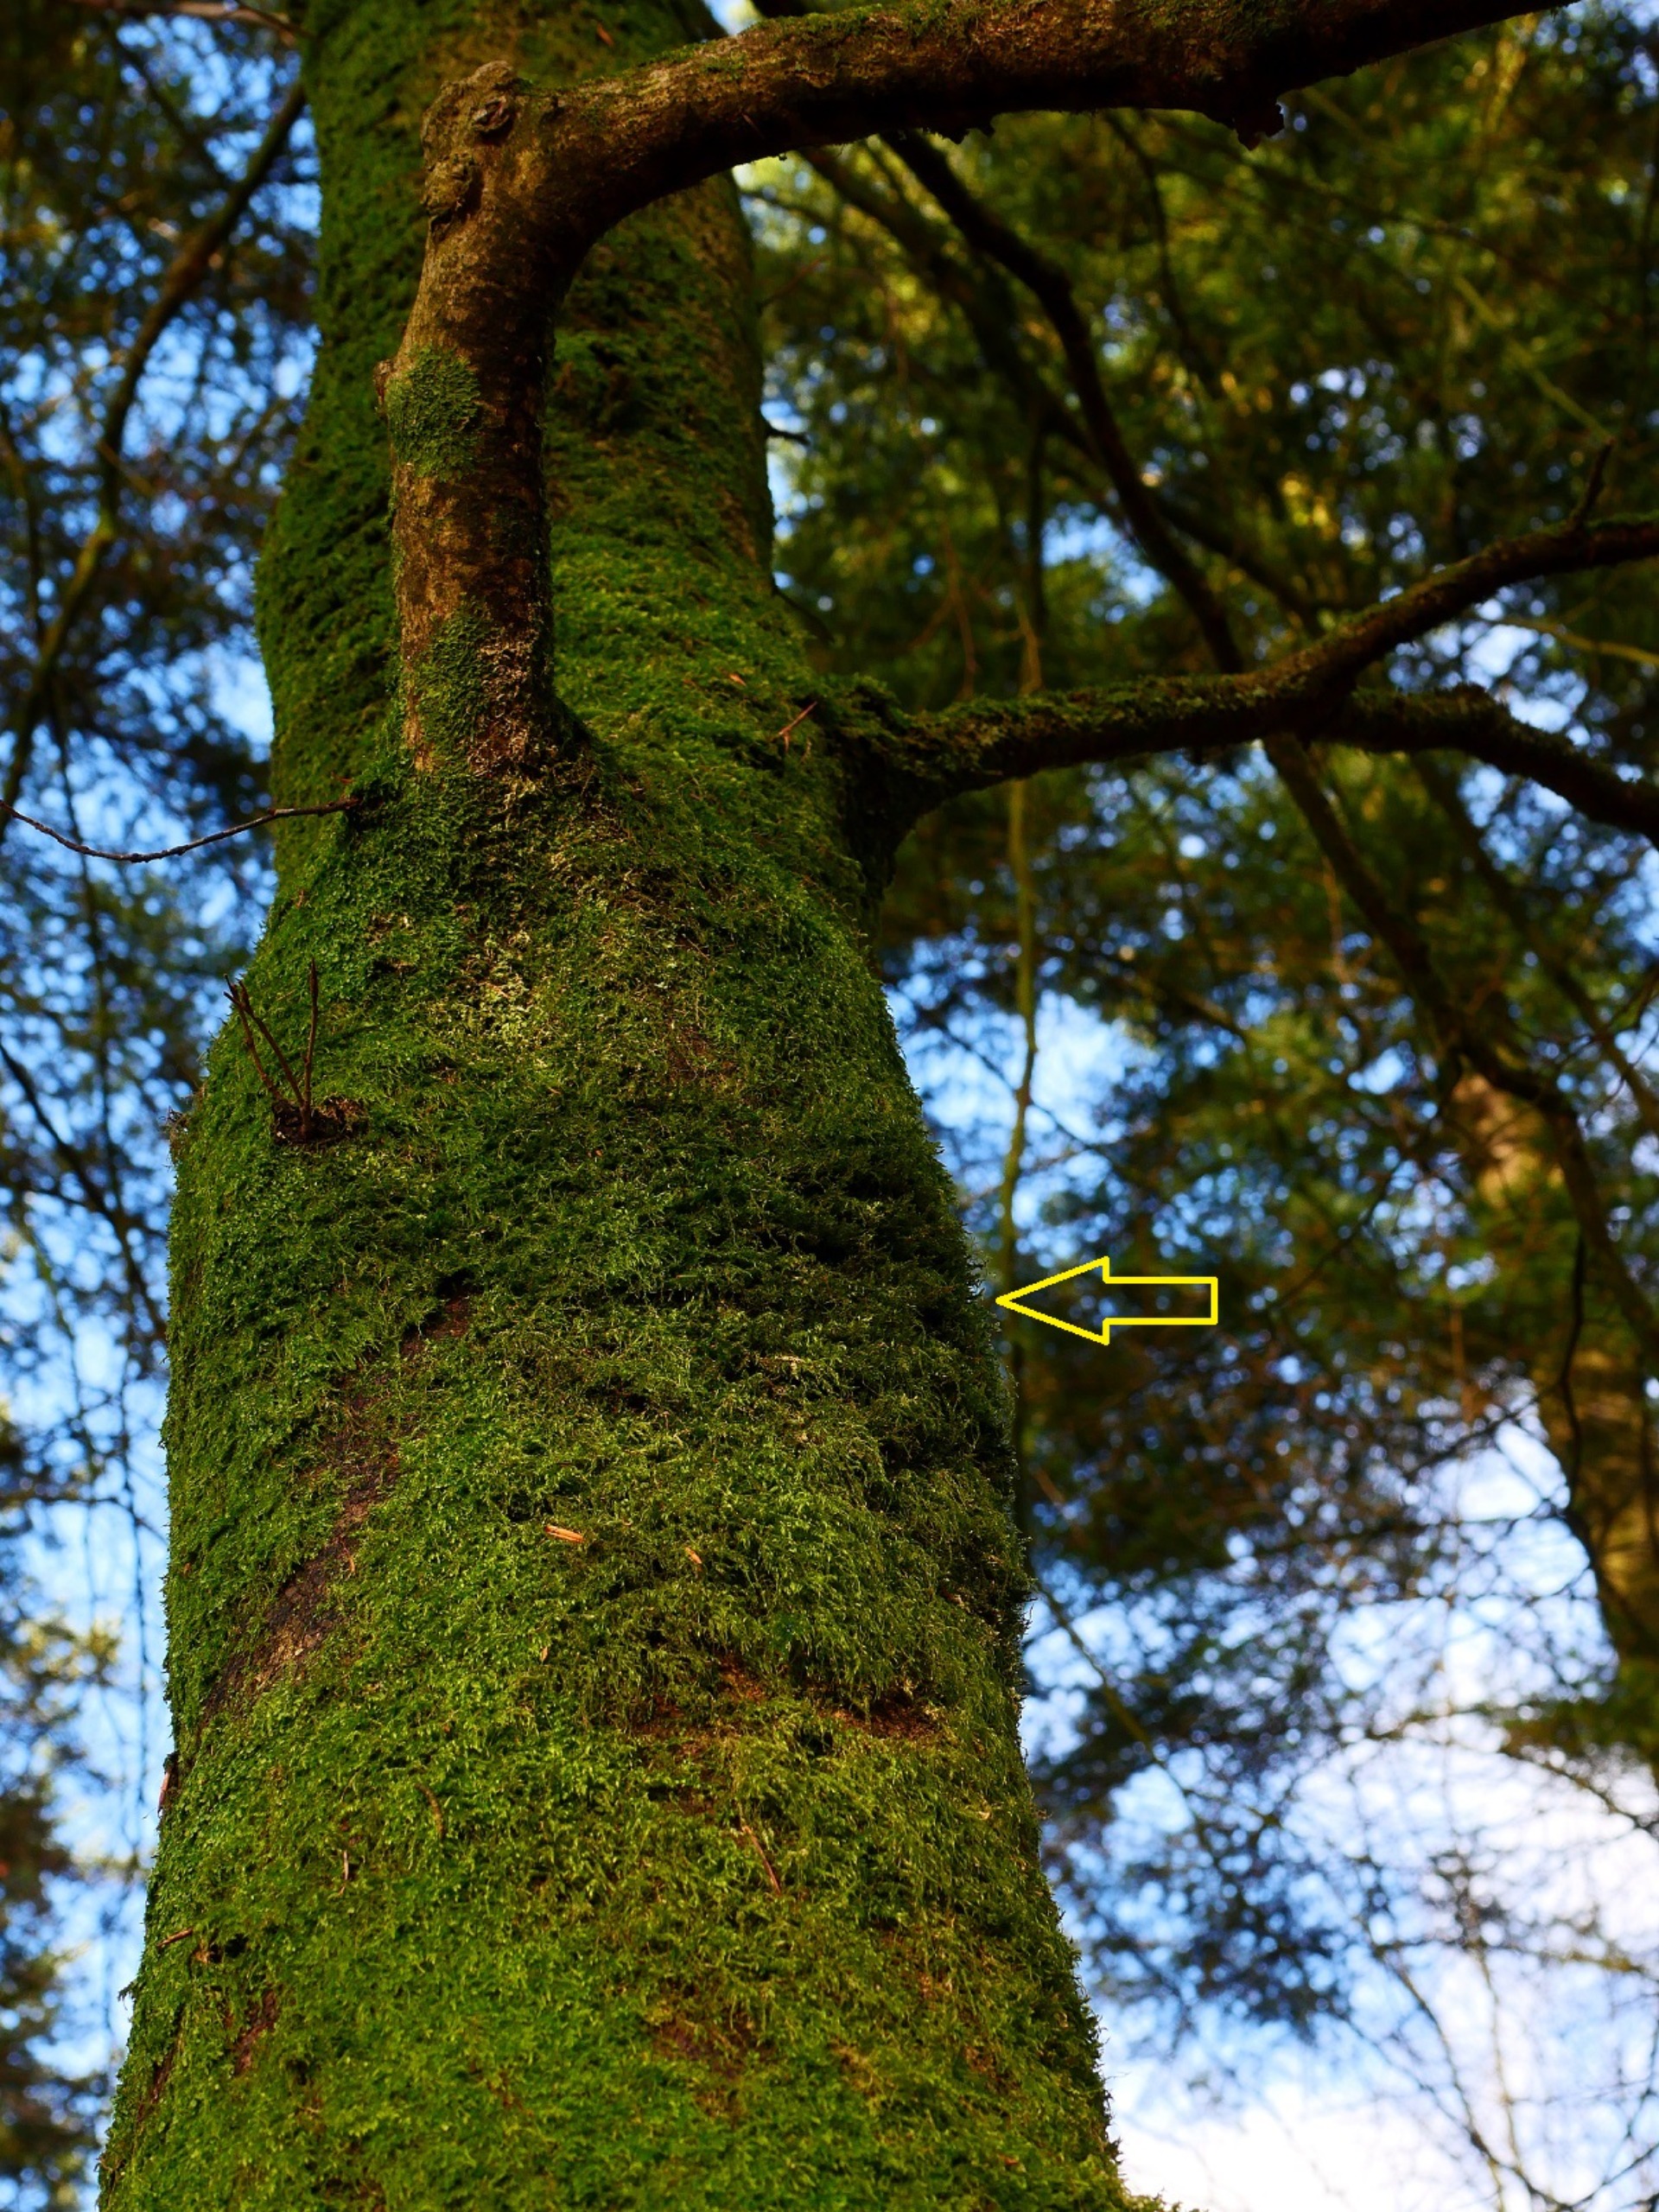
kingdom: Plantae
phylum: Bryophyta
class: Bryopsida
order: Hypnales
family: Neckeraceae
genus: Neckera
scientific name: Neckera pumila
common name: Lav fladmos
